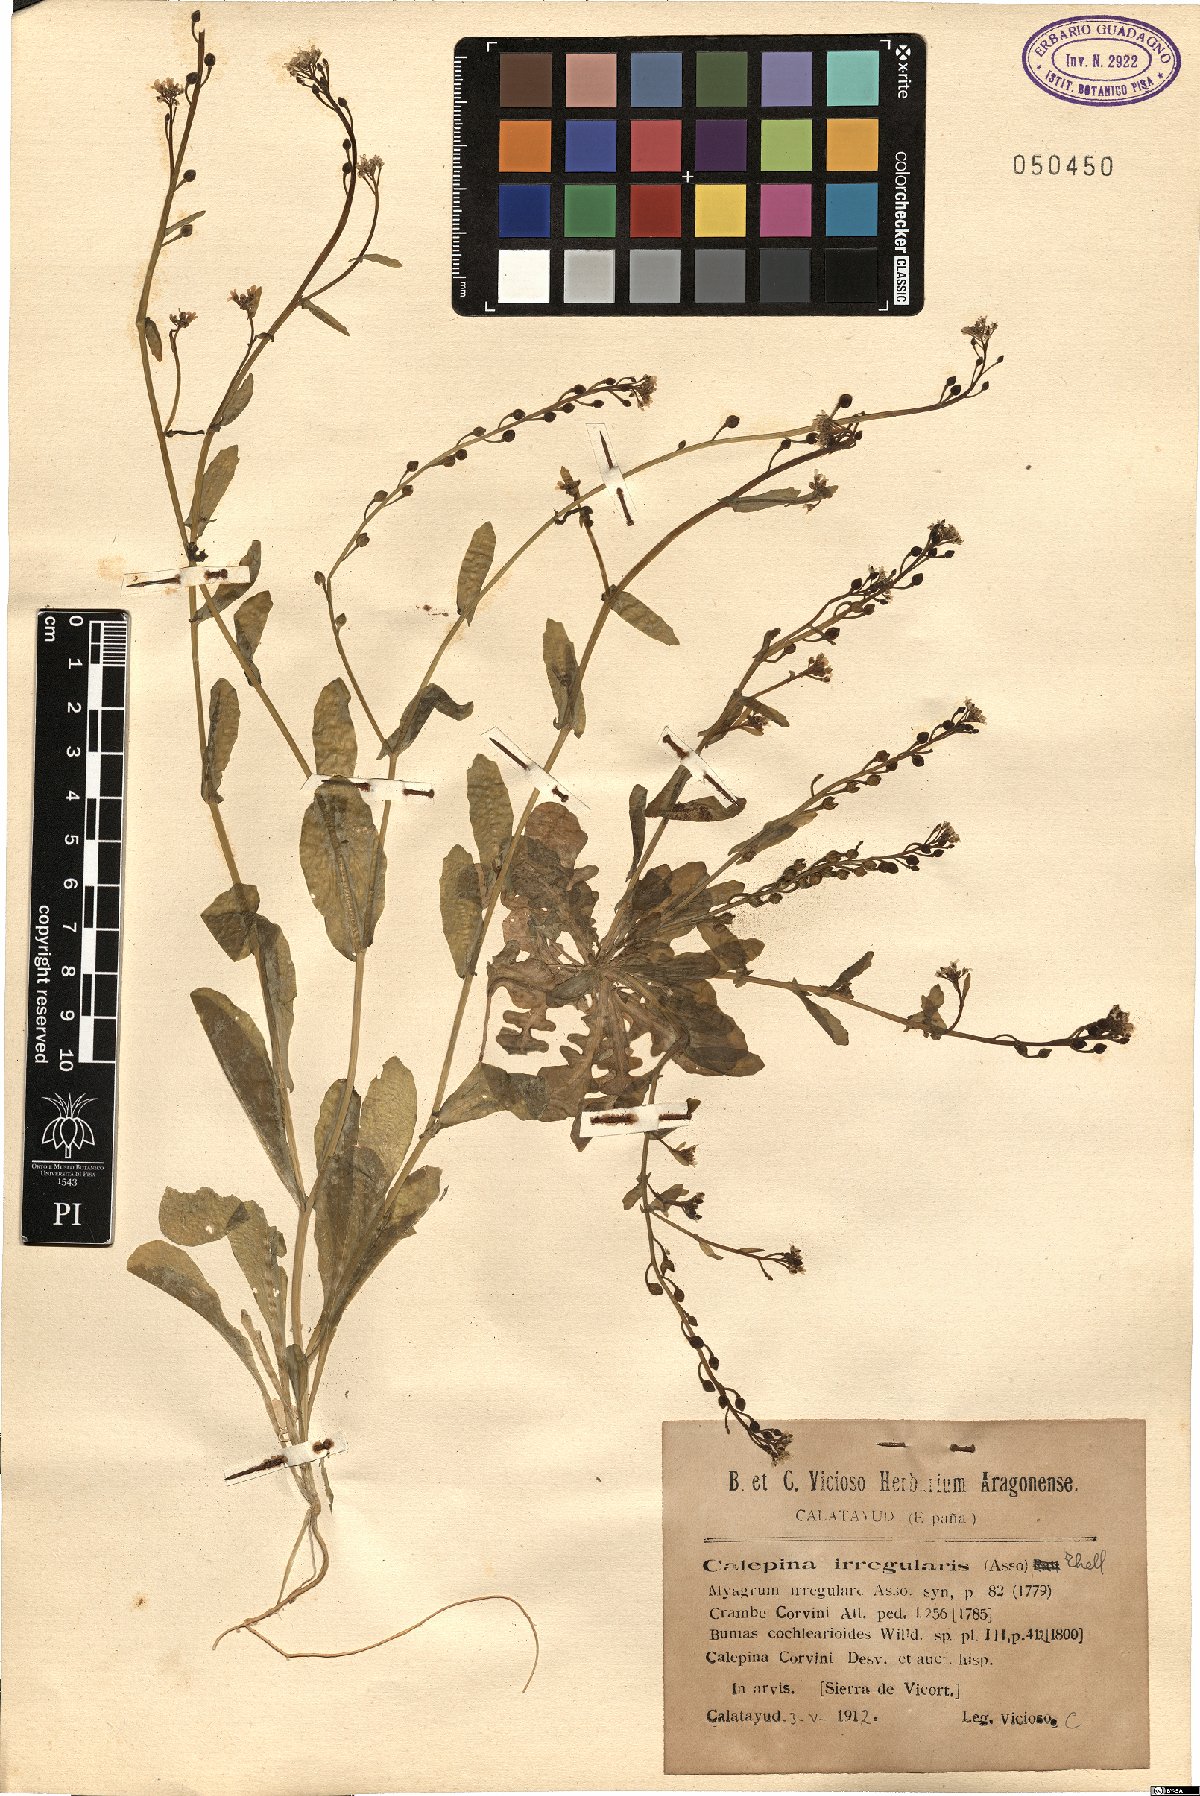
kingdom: Plantae
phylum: Tracheophyta
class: Magnoliopsida
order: Brassicales
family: Brassicaceae
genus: Calepina
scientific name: Calepina irregularis
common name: White ballmustard
